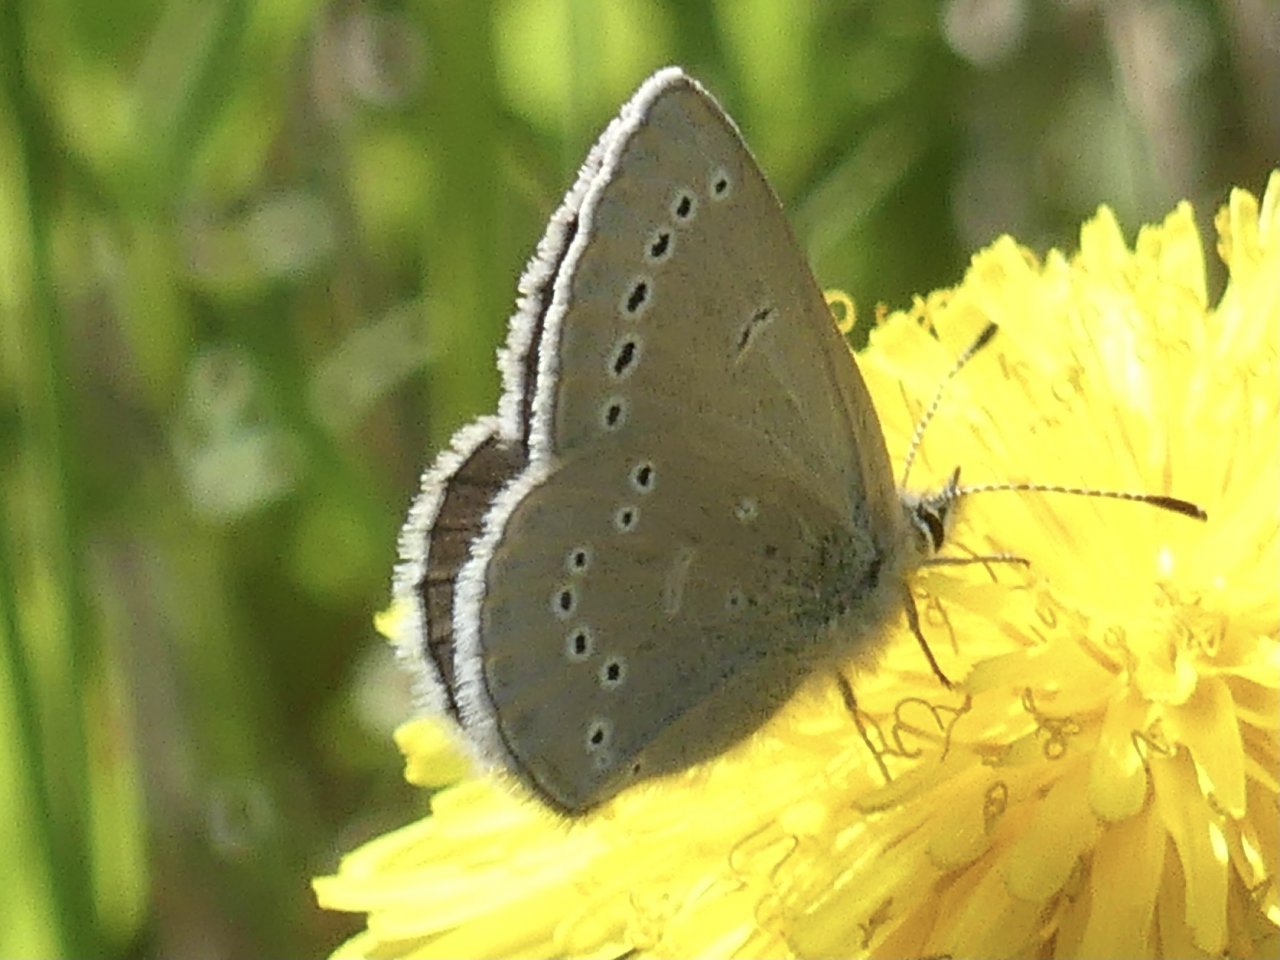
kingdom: Animalia
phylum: Arthropoda
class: Insecta
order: Lepidoptera
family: Lycaenidae
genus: Glaucopsyche
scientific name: Glaucopsyche lygdamus
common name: Silvery Blue
